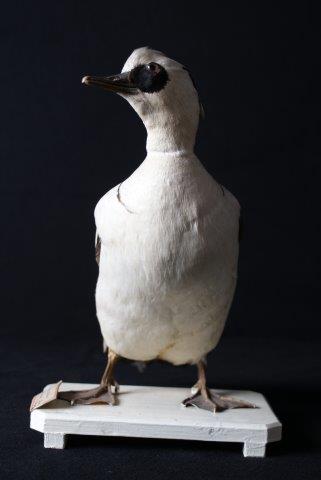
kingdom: Animalia
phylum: Chordata
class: Aves
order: Anseriformes
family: Anatidae
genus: Mergellus
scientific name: Mergellus albellus
